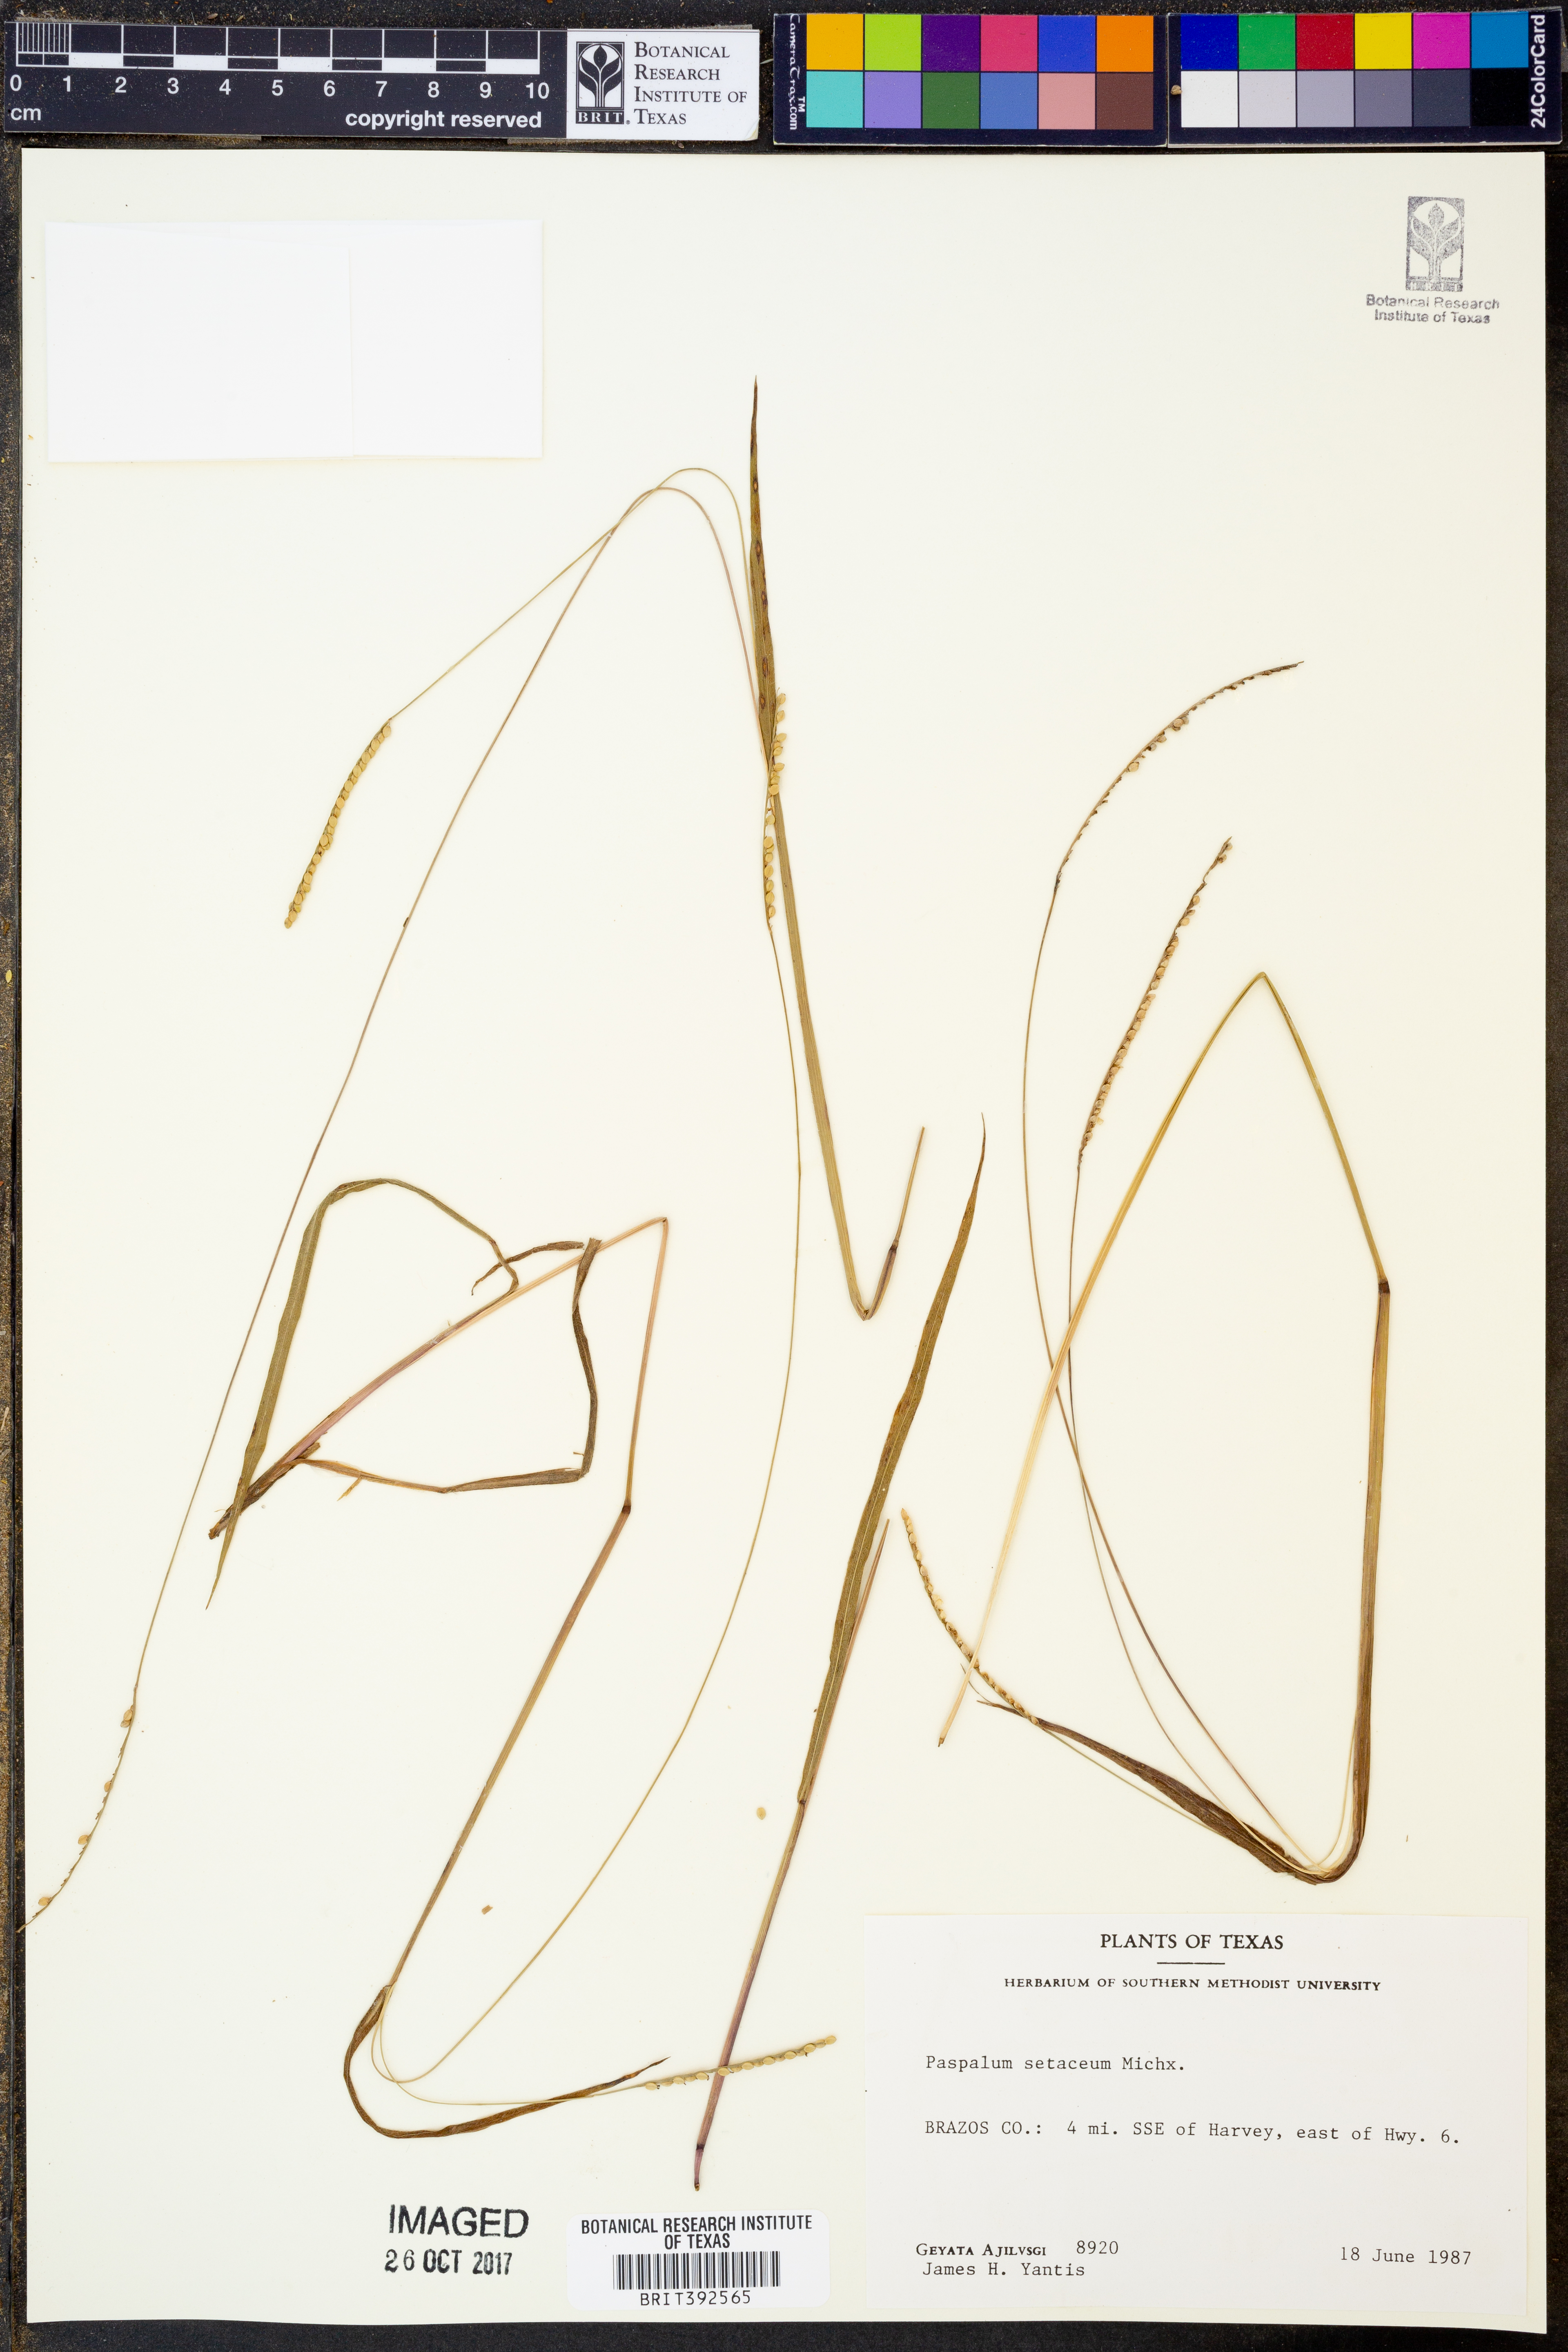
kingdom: Plantae
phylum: Tracheophyta
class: Liliopsida
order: Poales
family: Poaceae
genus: Paspalum
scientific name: Paspalum setaceum
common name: Slender paspalum
